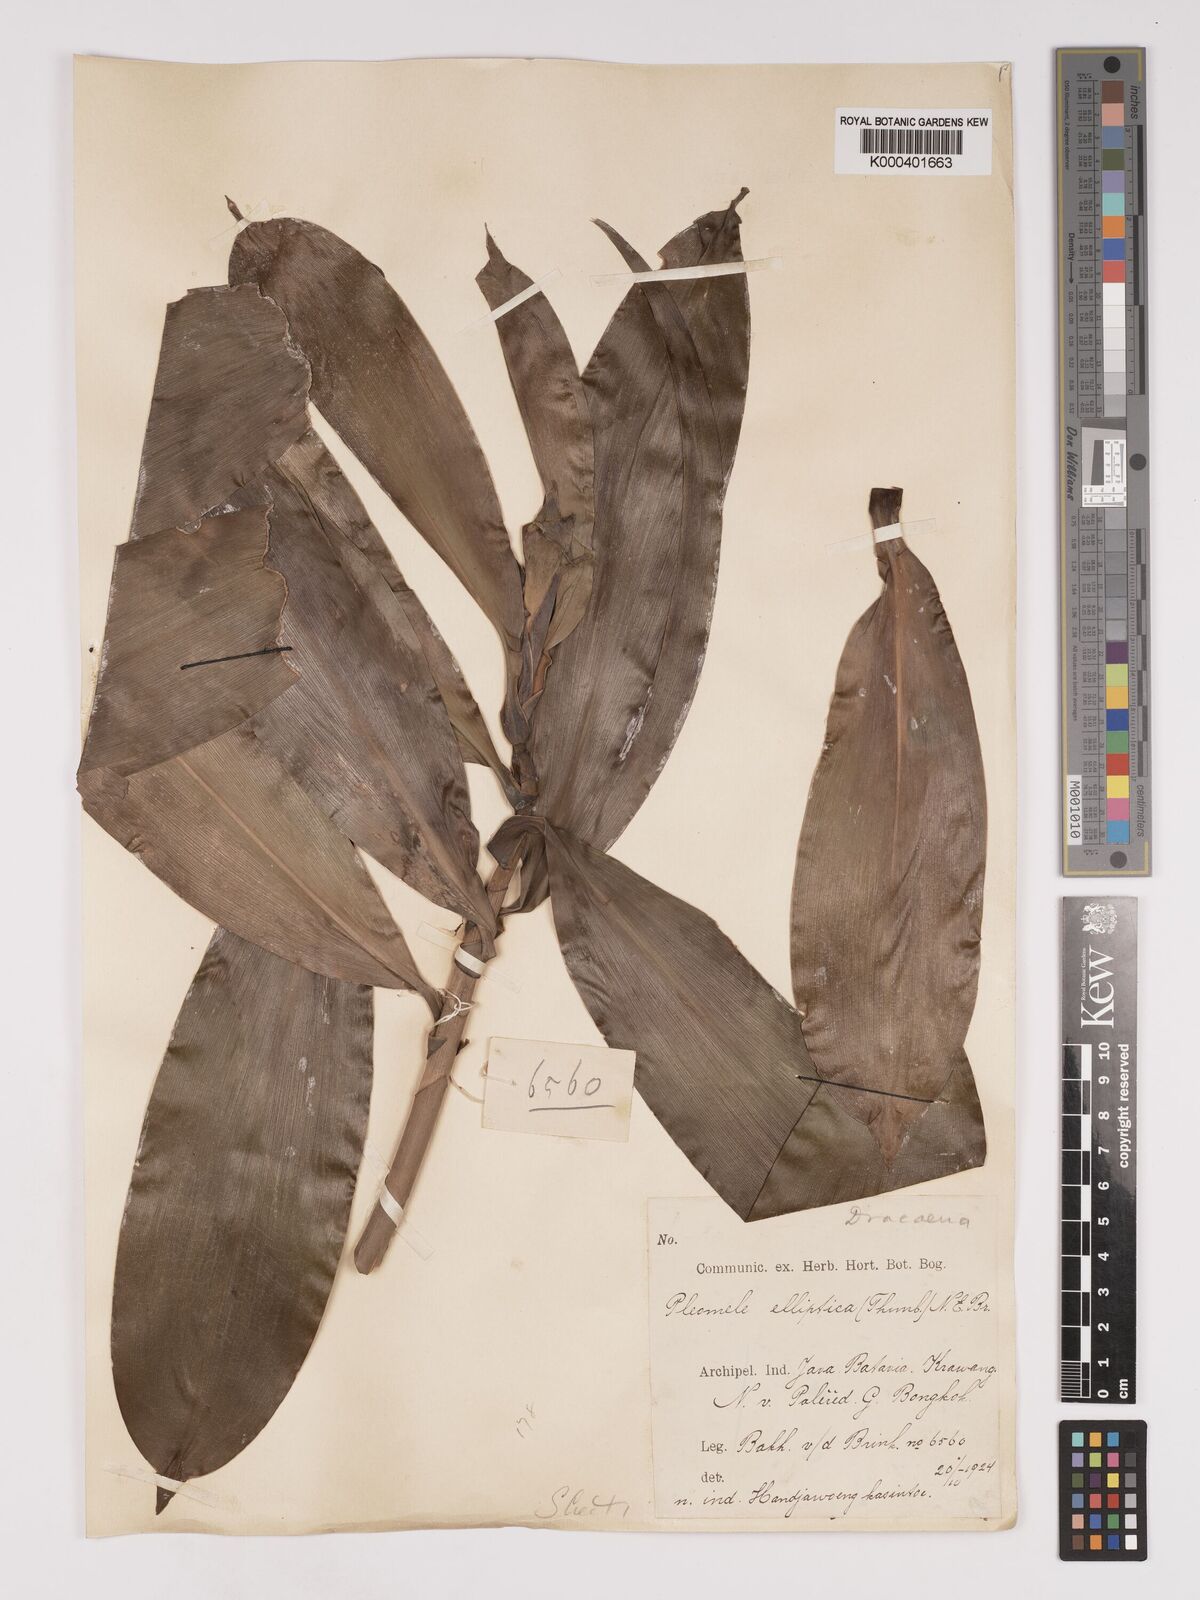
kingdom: Plantae
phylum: Tracheophyta
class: Liliopsida
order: Asparagales
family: Asparagaceae
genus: Dracaena
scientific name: Dracaena elliptica
